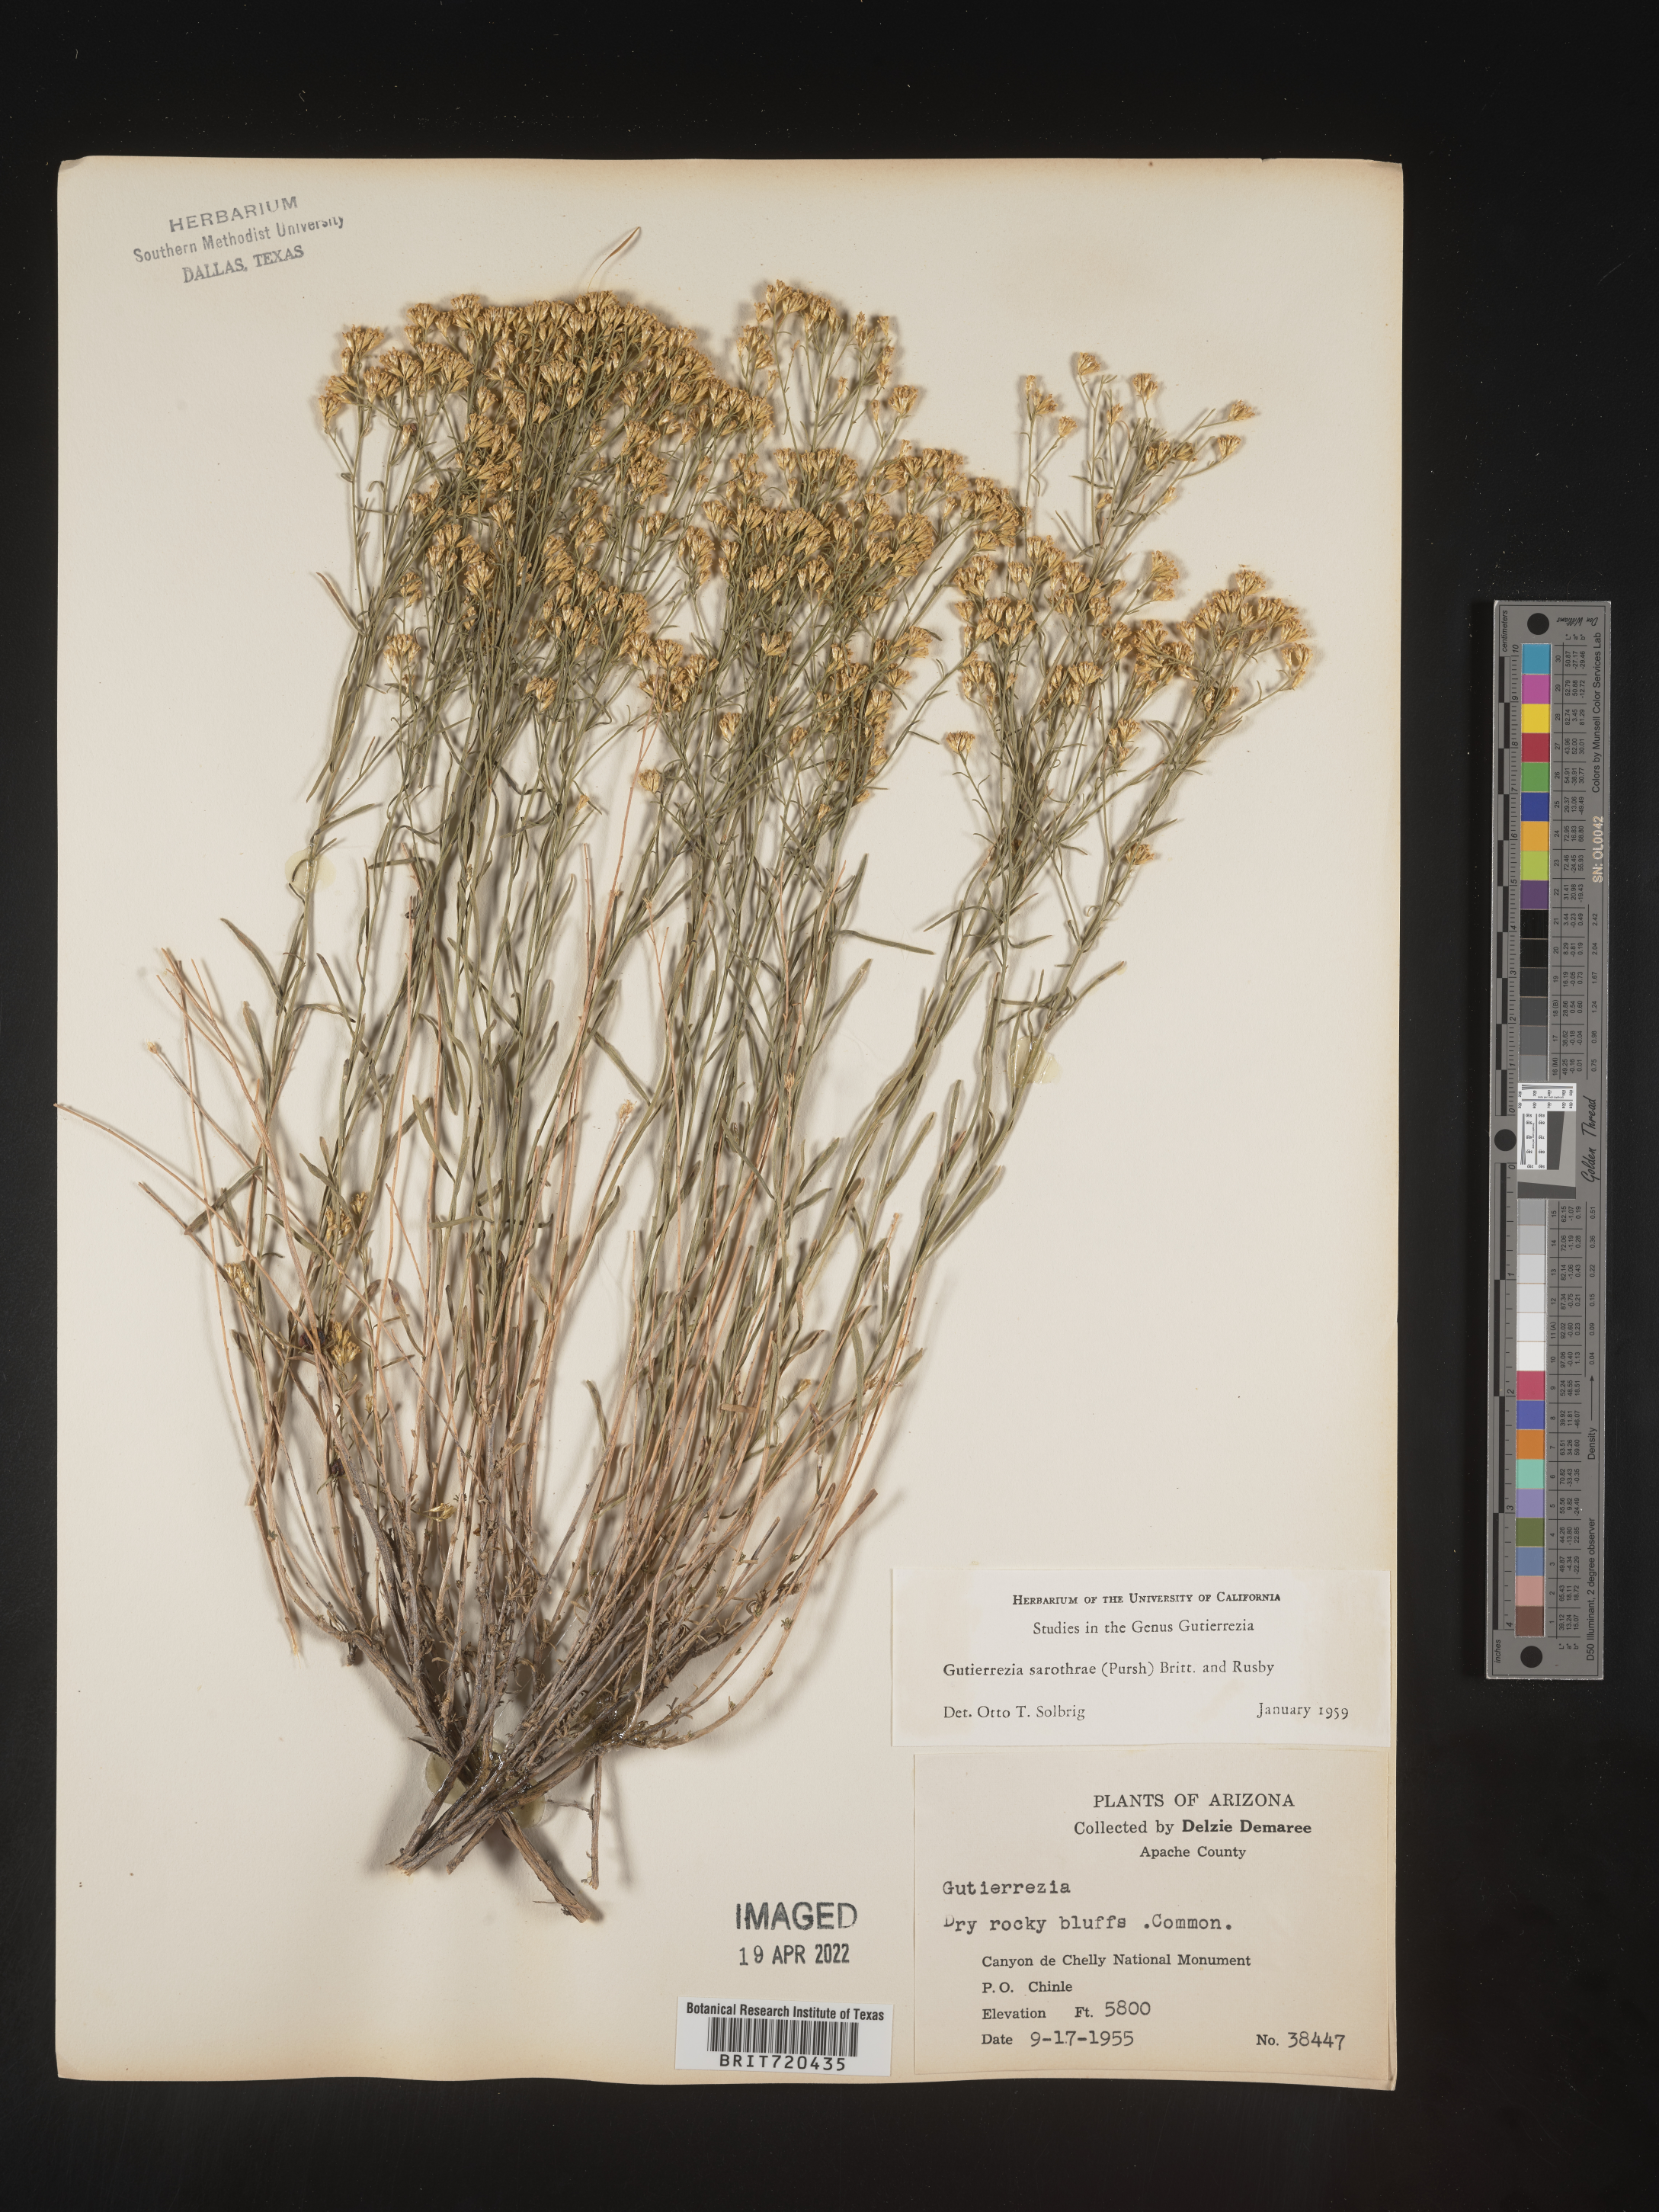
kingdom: Plantae
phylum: Tracheophyta
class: Magnoliopsida
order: Asterales
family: Asteraceae
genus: Gutierrezia
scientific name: Gutierrezia sarothrae
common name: Broom snakeweed
